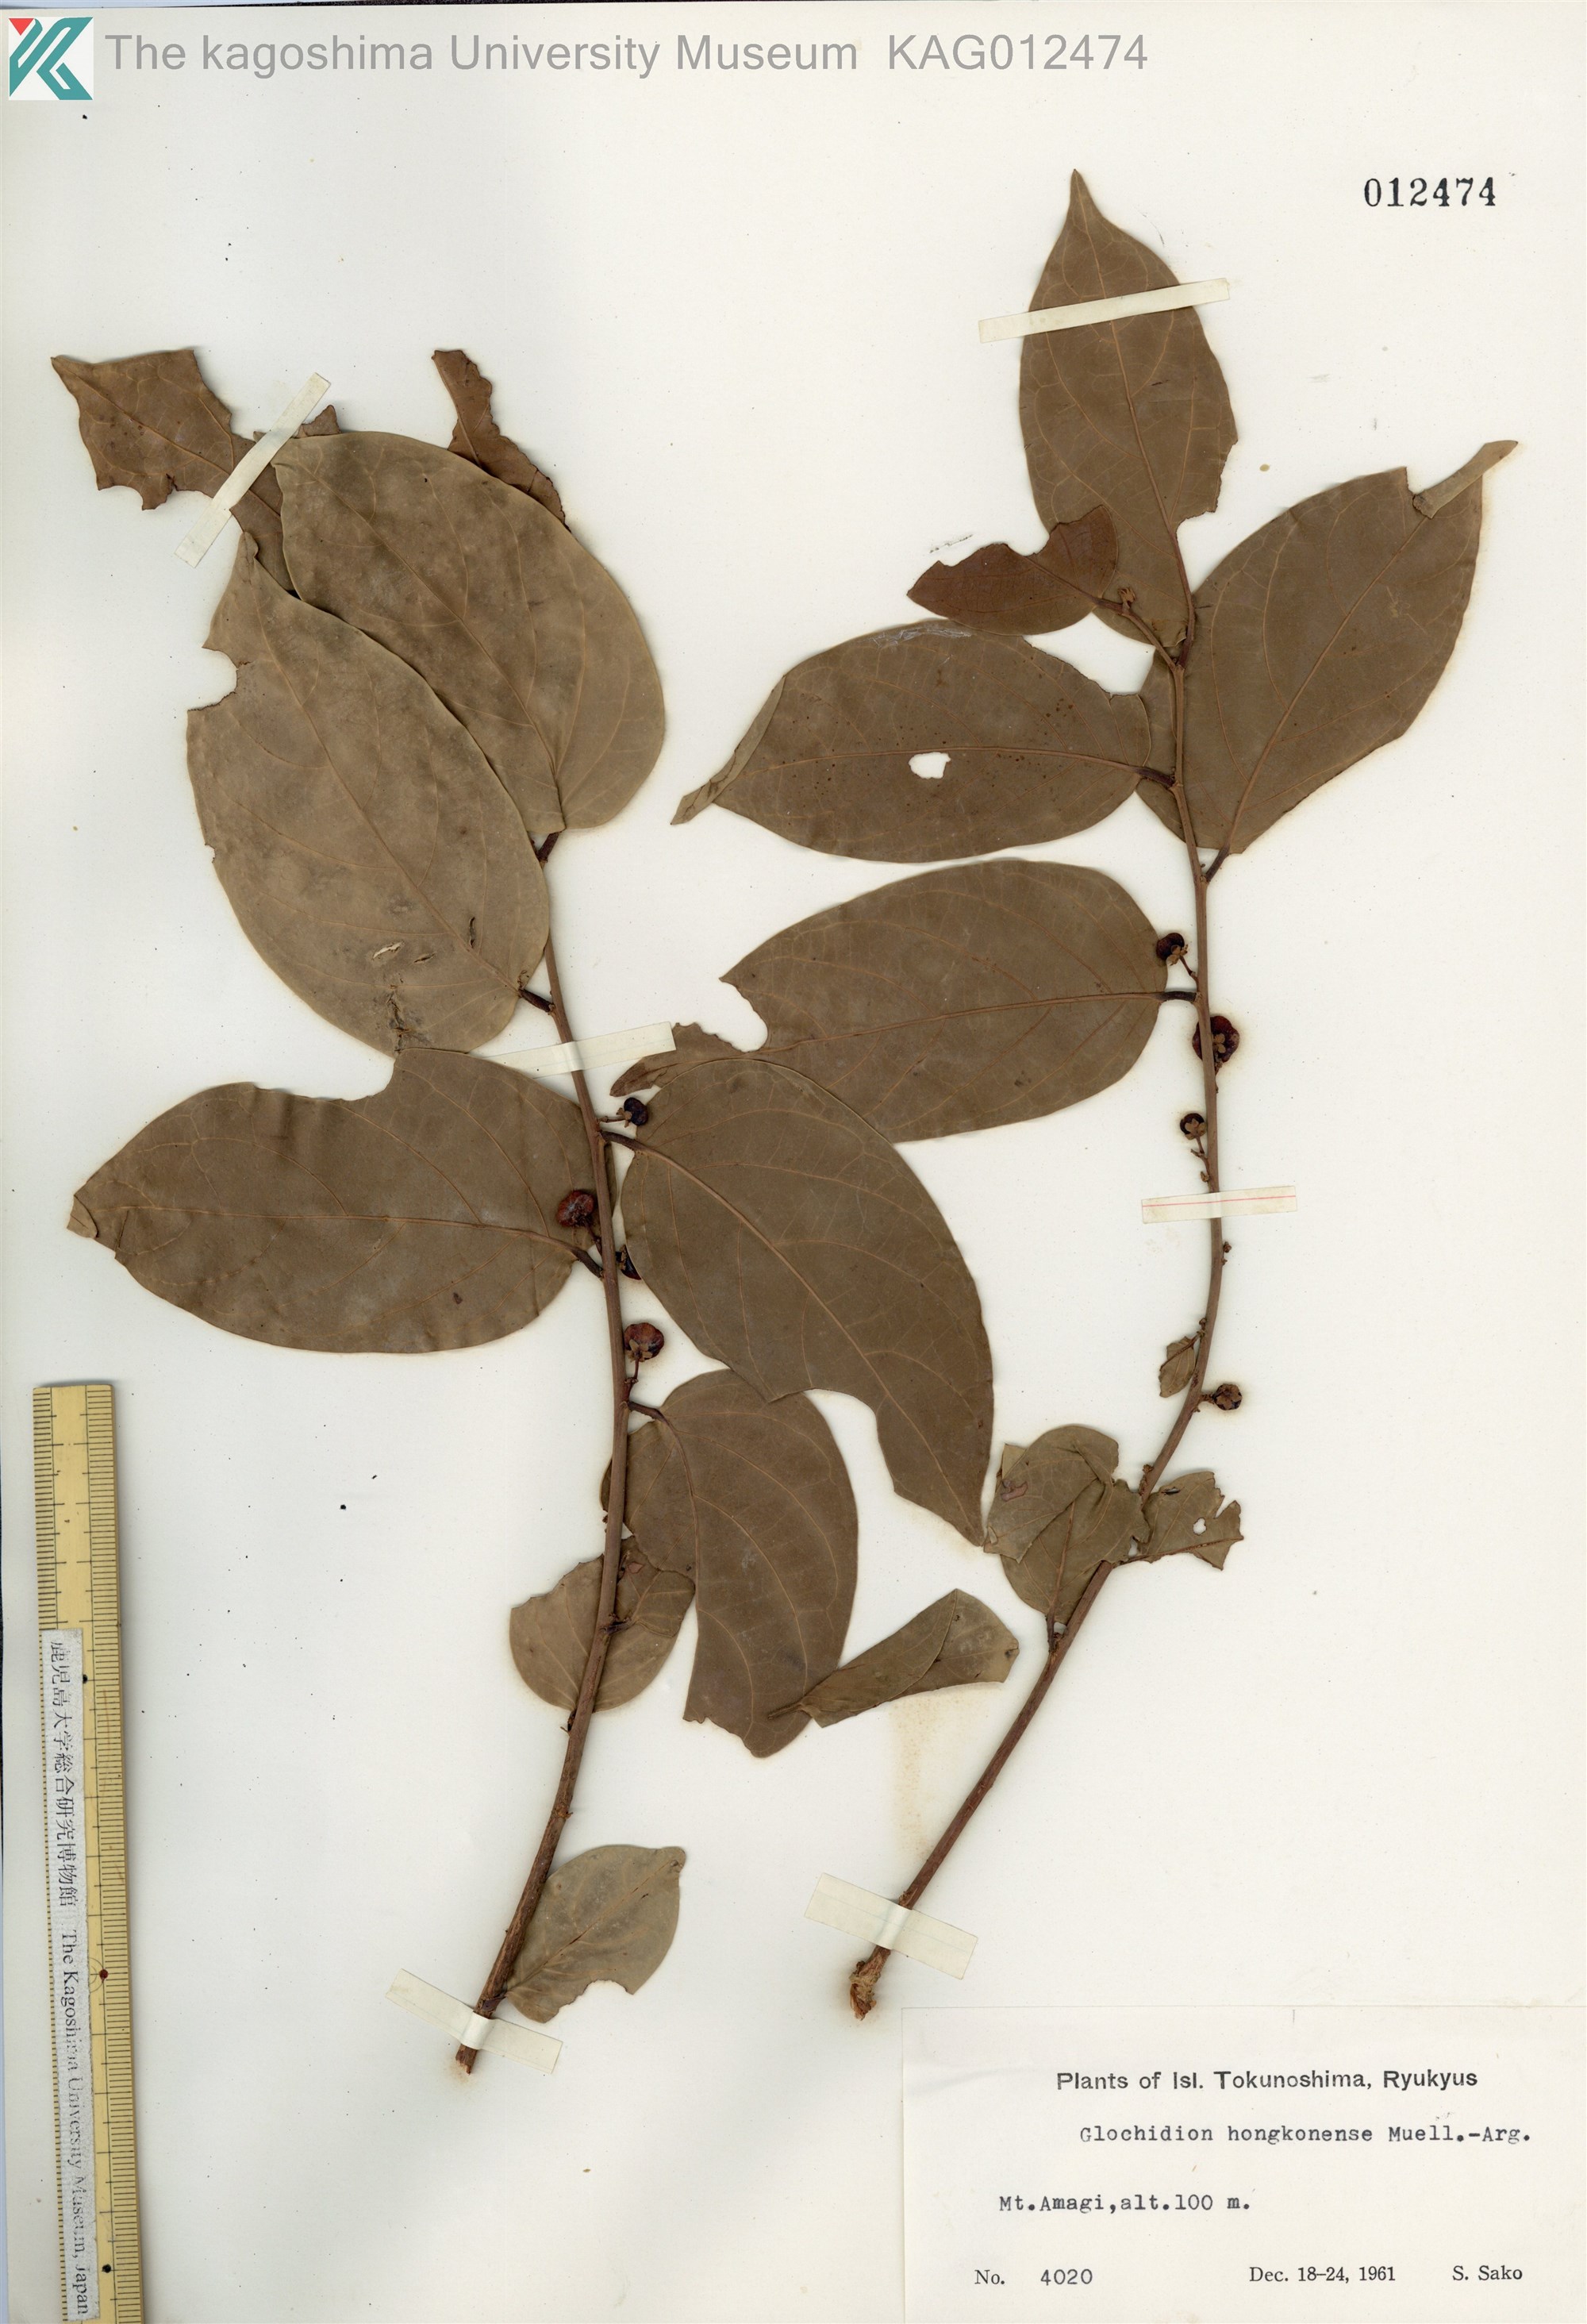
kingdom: Plantae
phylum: Tracheophyta
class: Magnoliopsida
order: Malpighiales
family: Phyllanthaceae
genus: Glochidion
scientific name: Glochidion zeylanicum
